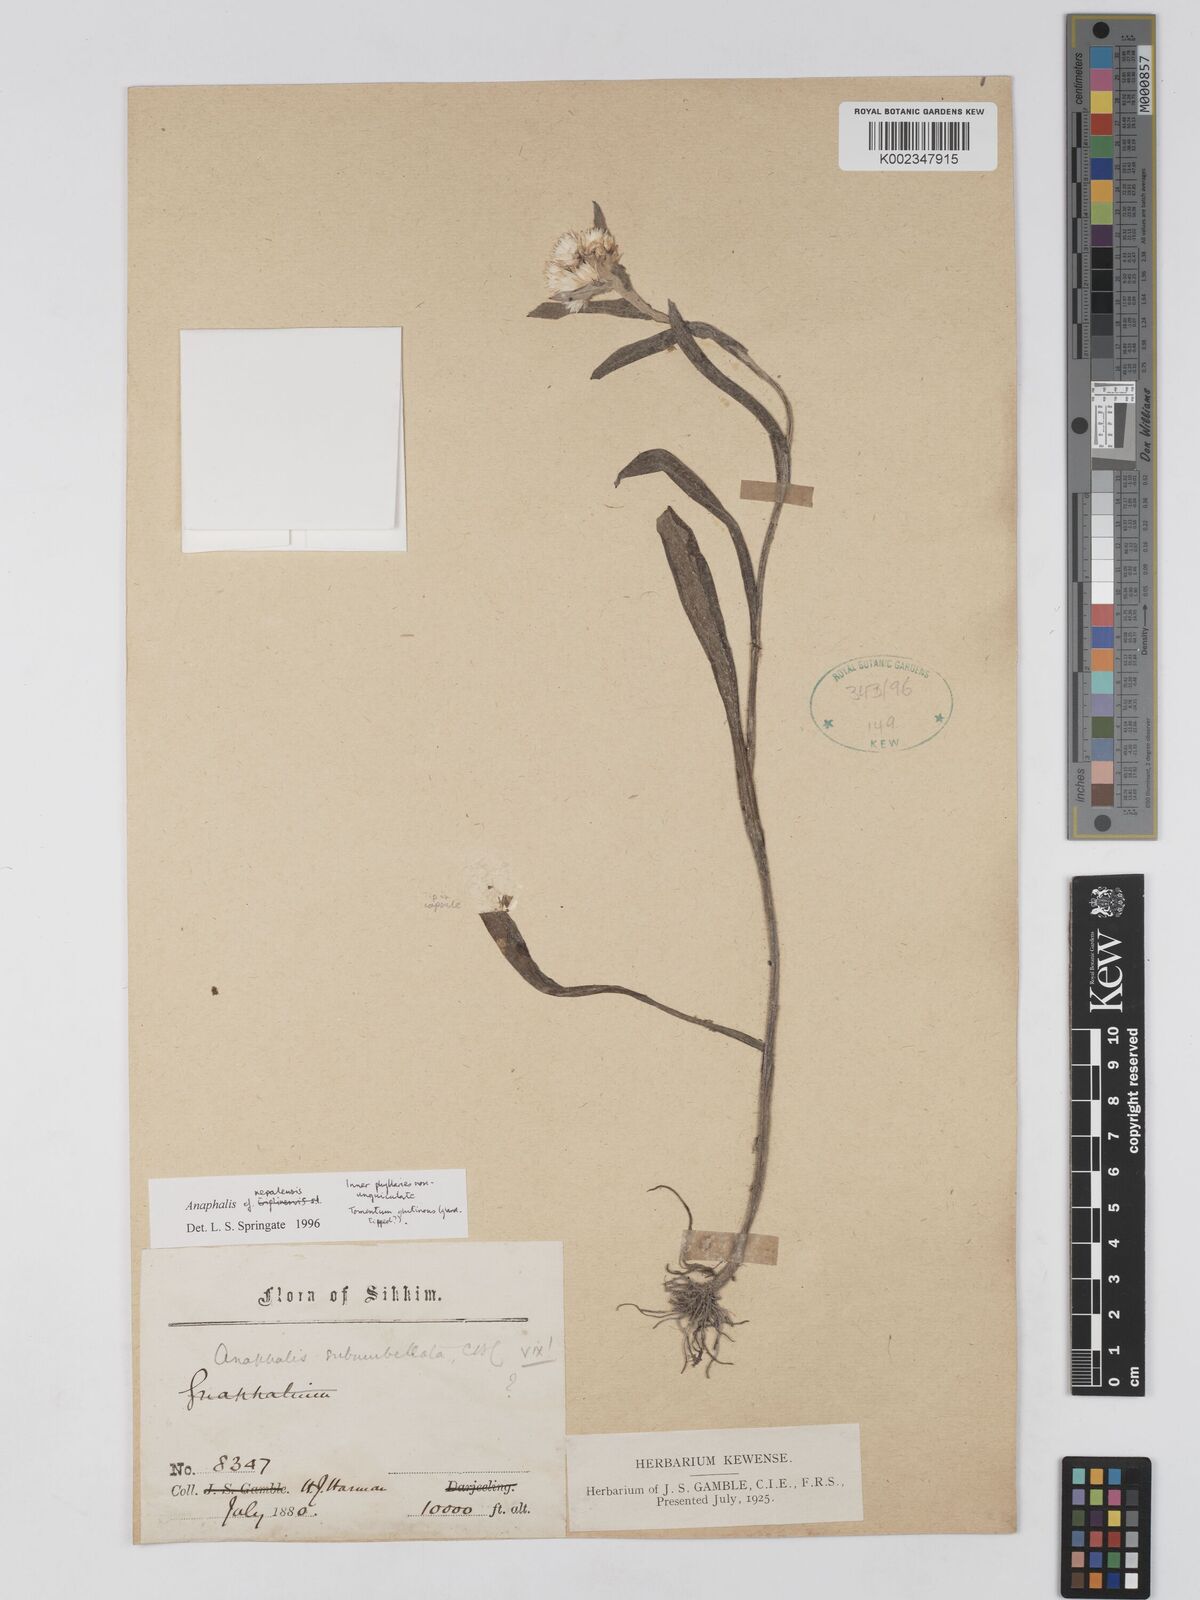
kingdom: Plantae
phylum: Tracheophyta
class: Magnoliopsida
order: Asterales
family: Asteraceae
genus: Anaphalis
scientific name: Anaphalis nepalensis
